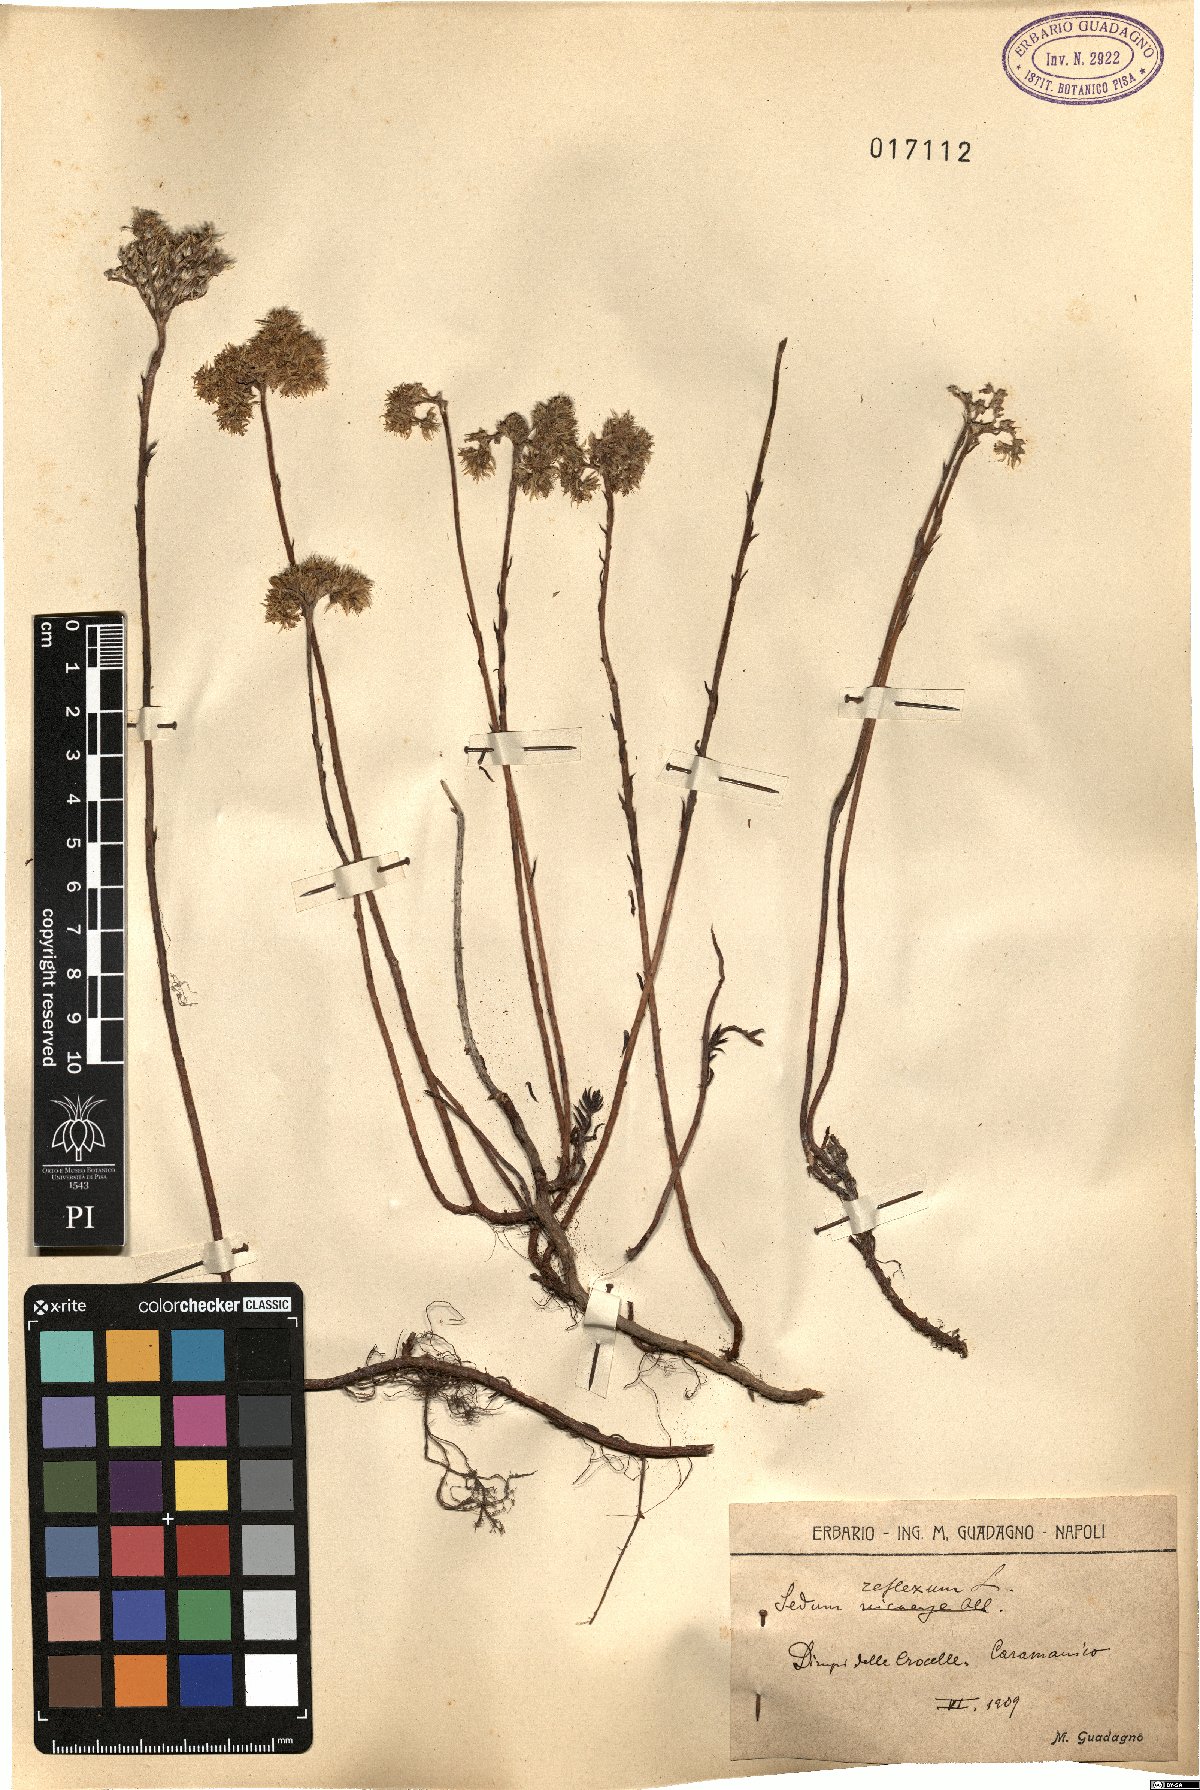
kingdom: Plantae
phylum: Tracheophyta
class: Magnoliopsida
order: Saxifragales
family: Crassulaceae
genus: Petrosedum
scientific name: Petrosedum rupestre
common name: Jenny's stonecrop
